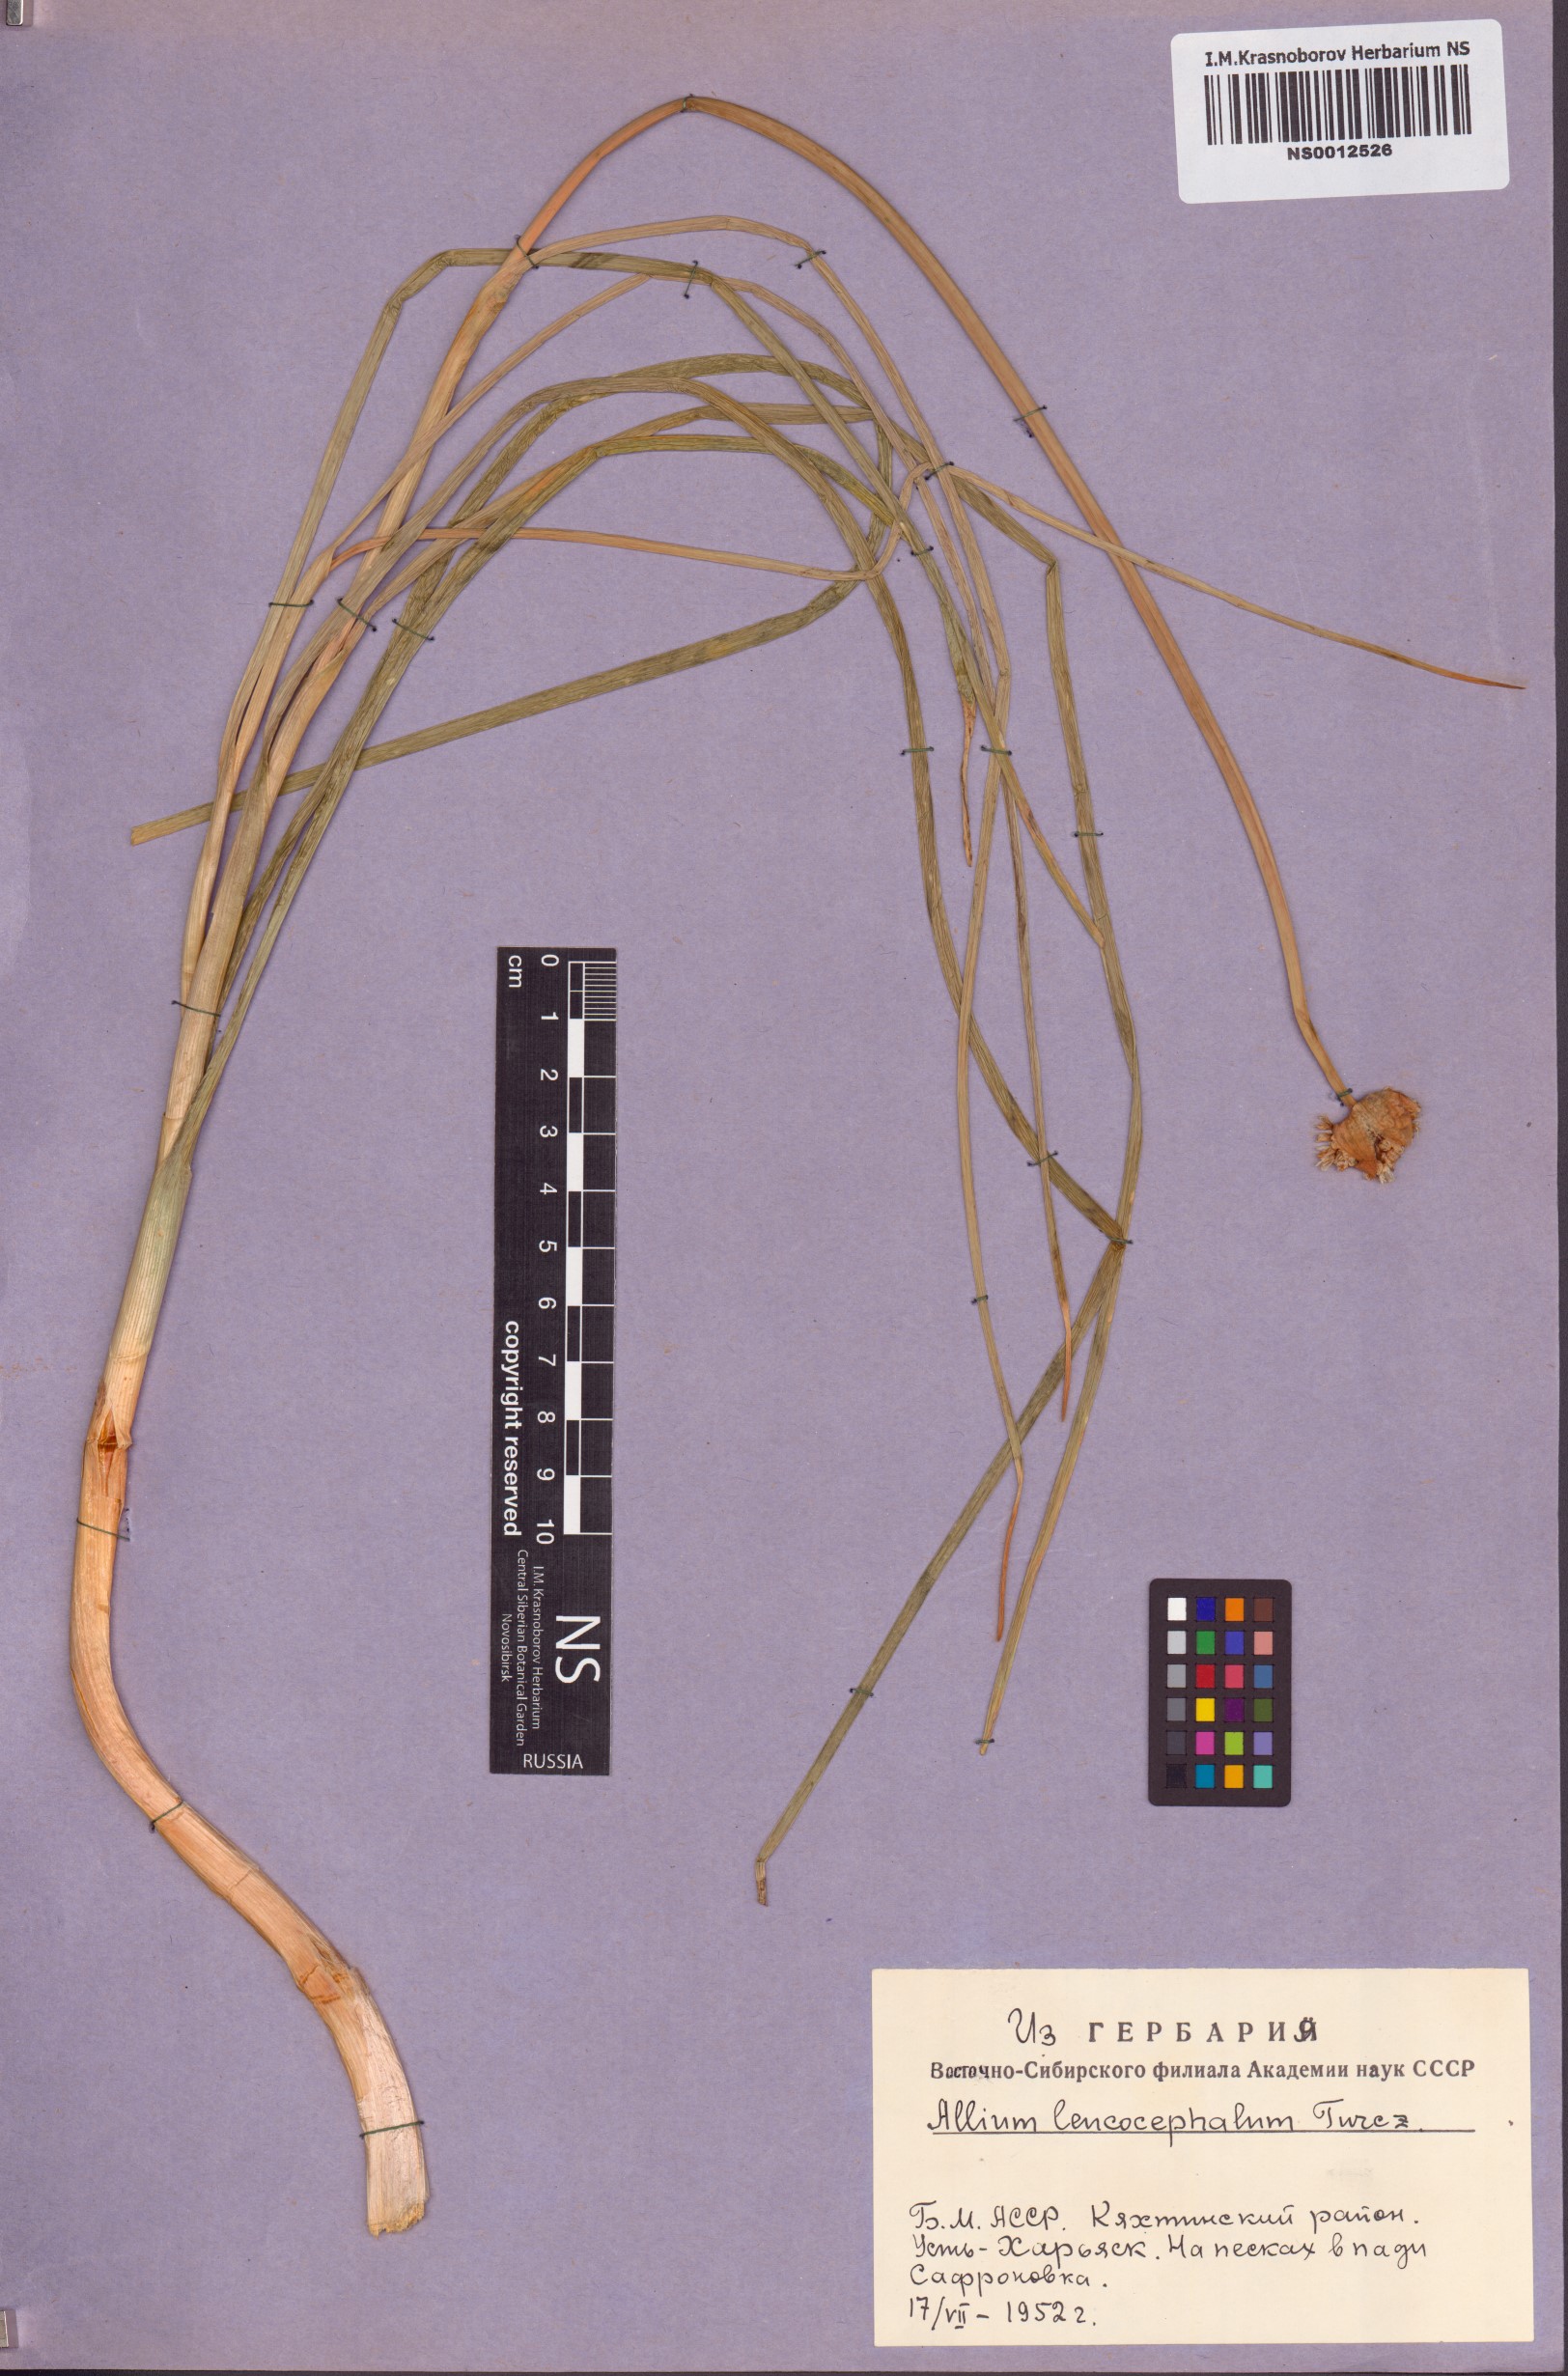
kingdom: Plantae
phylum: Tracheophyta
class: Liliopsida
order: Asparagales
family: Amaryllidaceae
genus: Allium
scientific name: Allium leucocephalum
